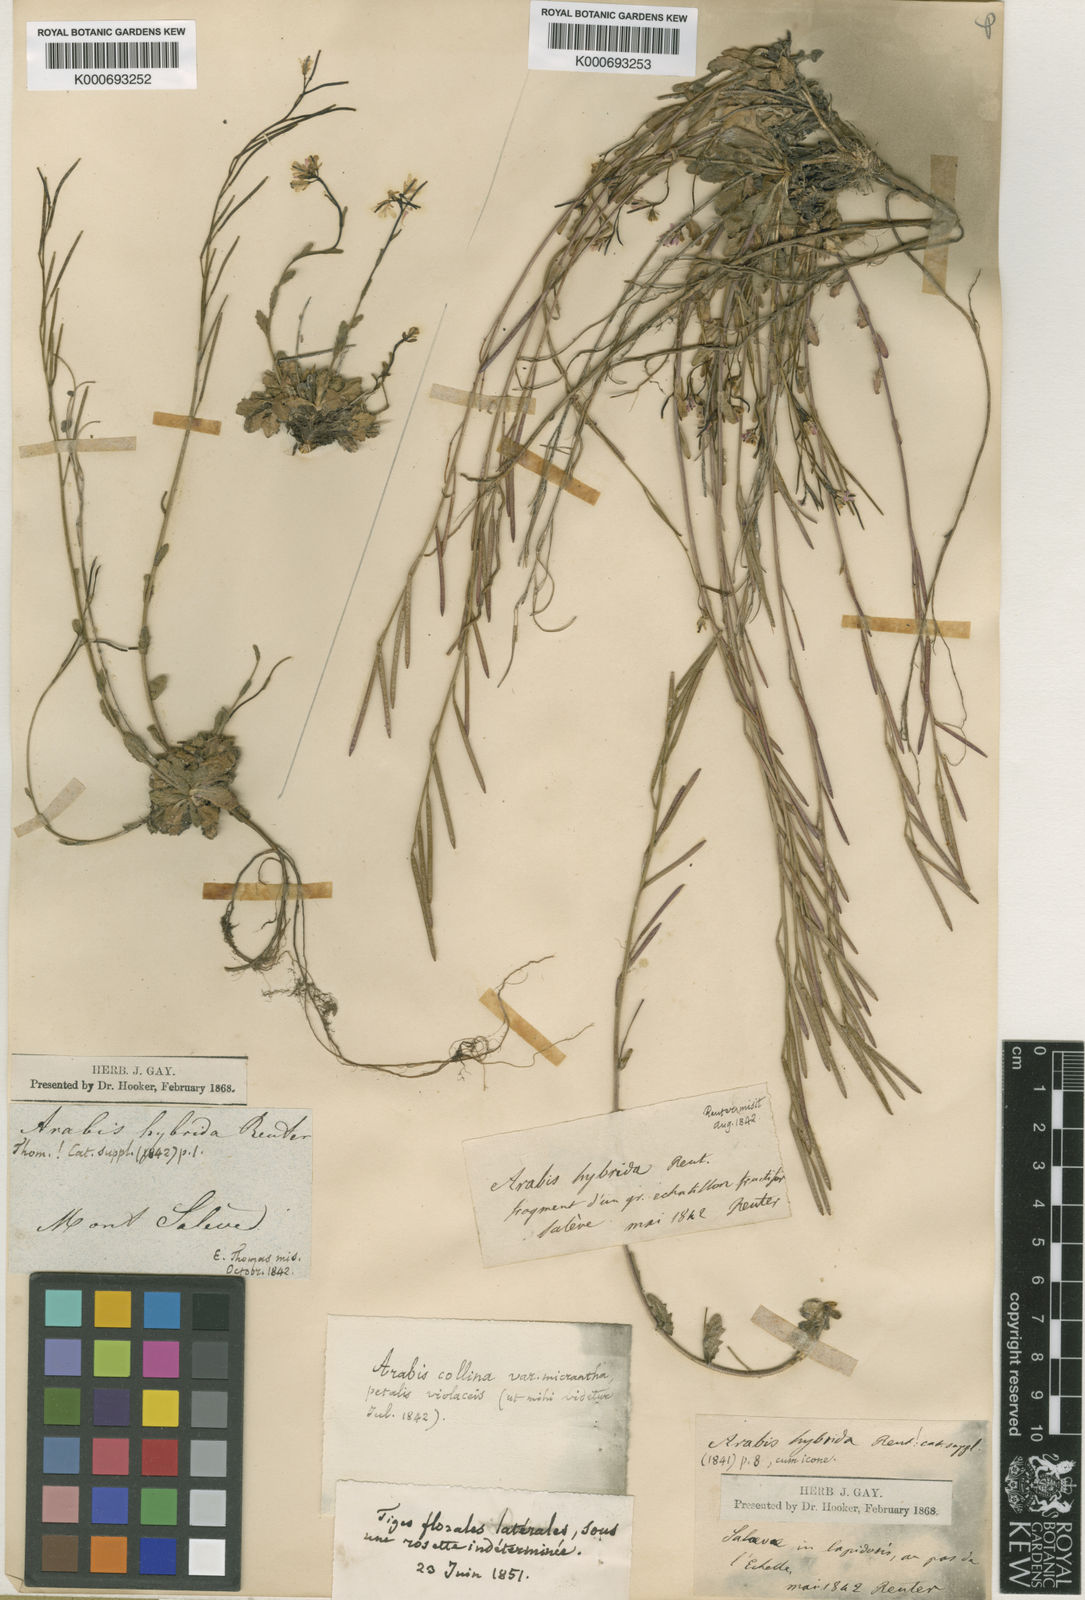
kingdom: Plantae
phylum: Tracheophyta
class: Magnoliopsida
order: Brassicales
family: Brassicaceae
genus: Arabis
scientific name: Arabis
